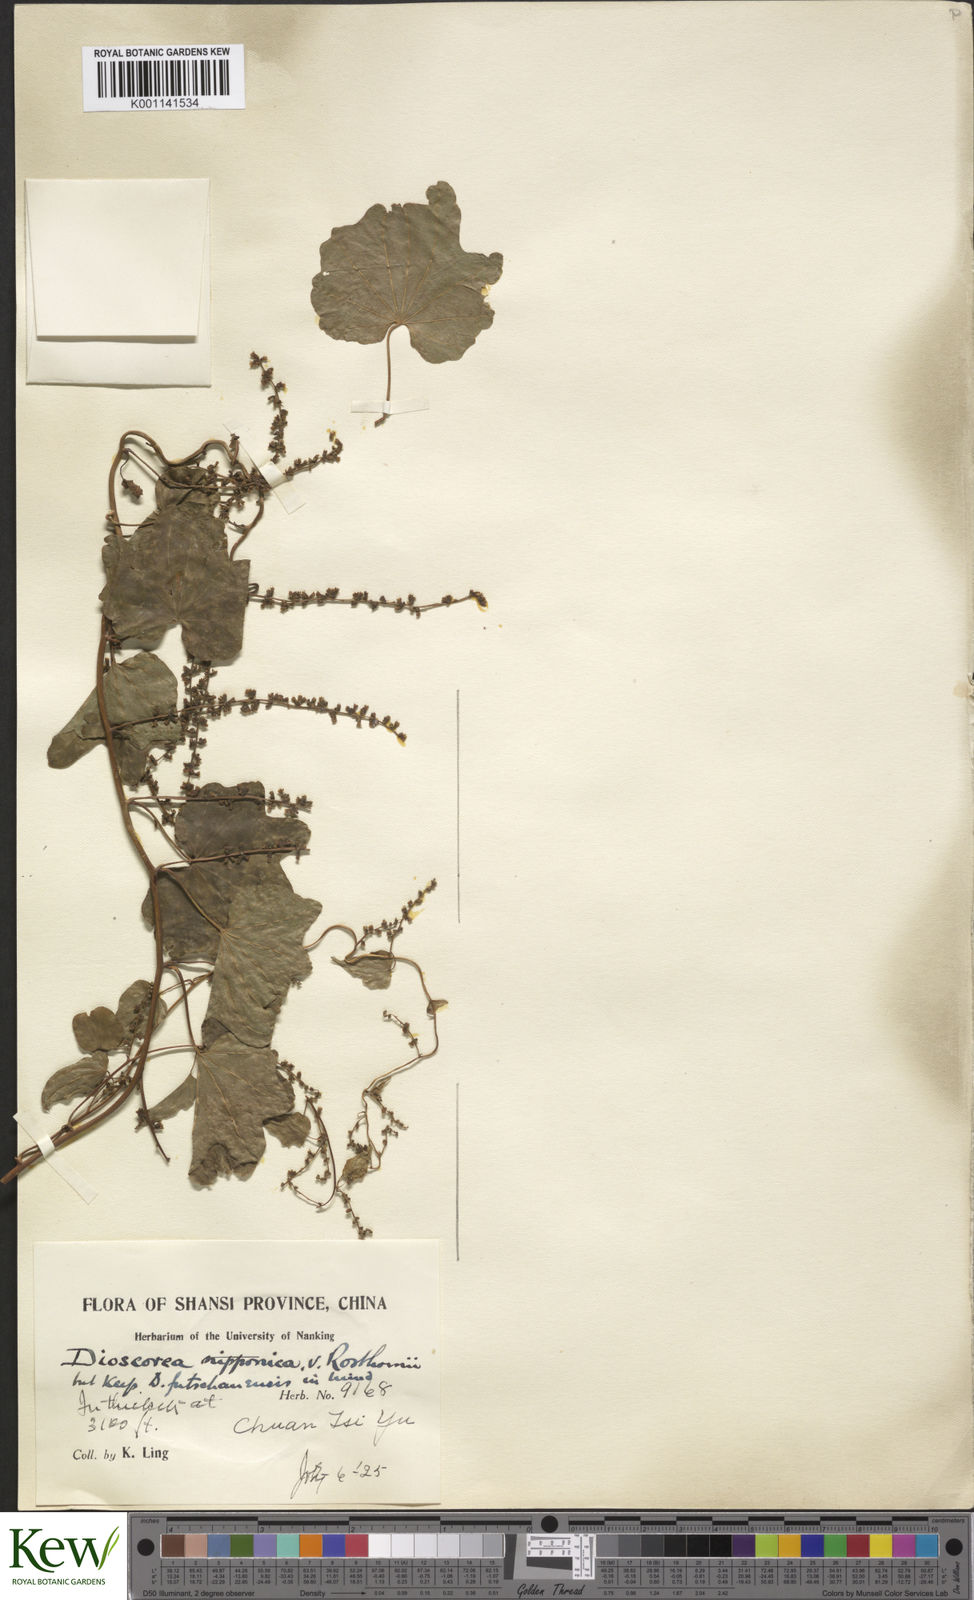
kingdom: Plantae
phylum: Tracheophyta
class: Liliopsida
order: Dioscoreales
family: Dioscoreaceae
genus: Dioscorea
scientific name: Dioscorea nipponica
